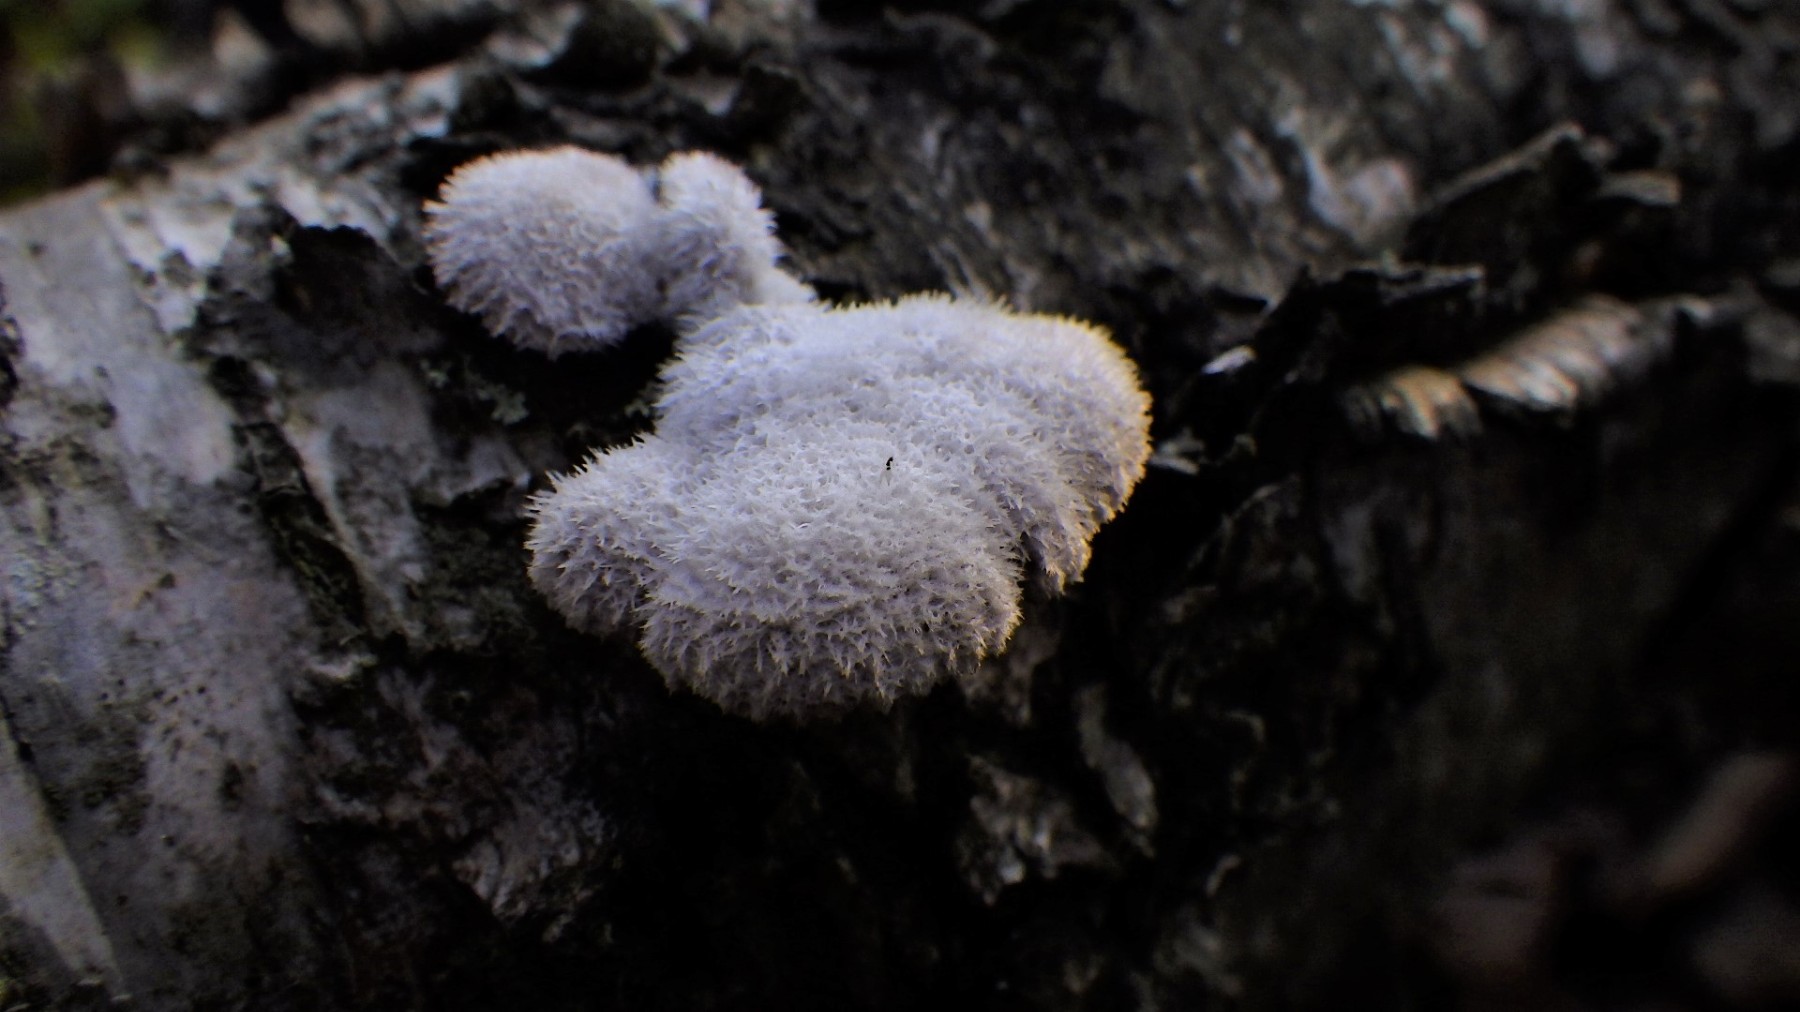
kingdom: Fungi
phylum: Basidiomycota
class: Agaricomycetes
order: Agaricales
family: Schizophyllaceae
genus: Schizophyllum
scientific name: Schizophyllum commune
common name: kløvblad
